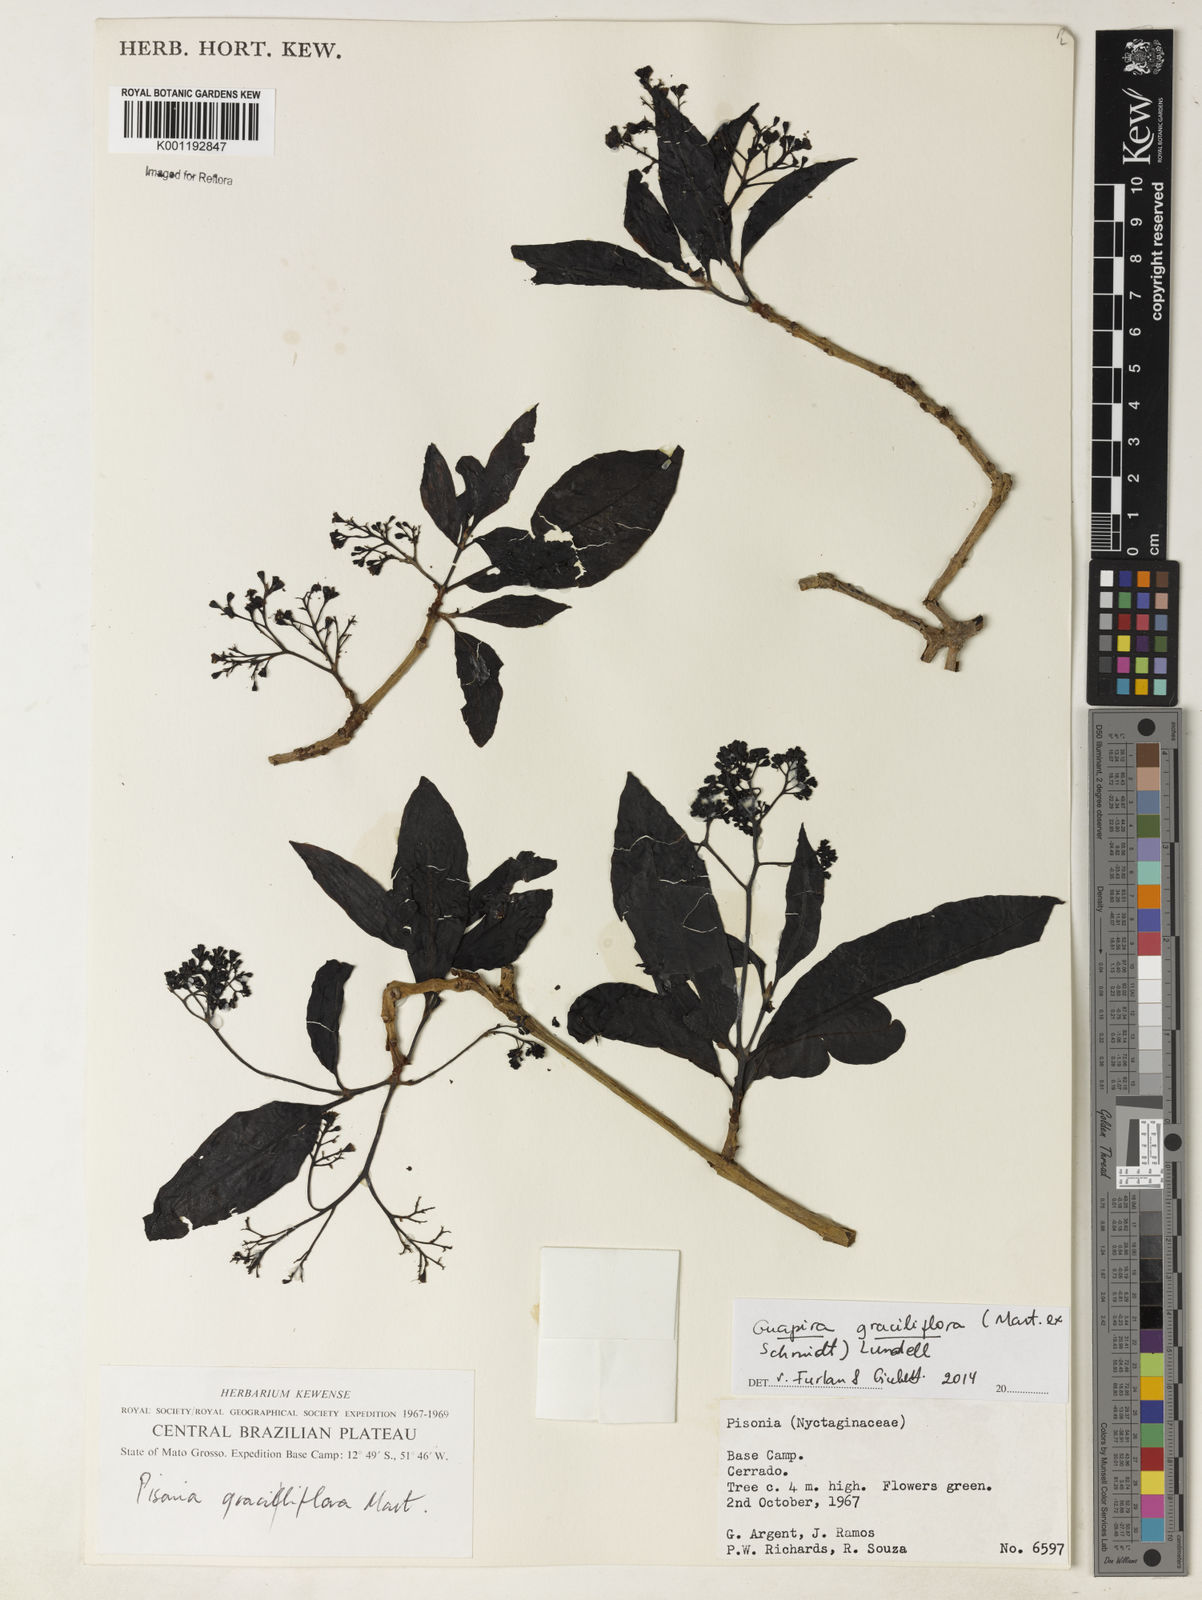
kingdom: Plantae
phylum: Tracheophyta
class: Magnoliopsida
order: Caryophyllales
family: Nyctaginaceae
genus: Guapira
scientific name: Guapira graciliflora
